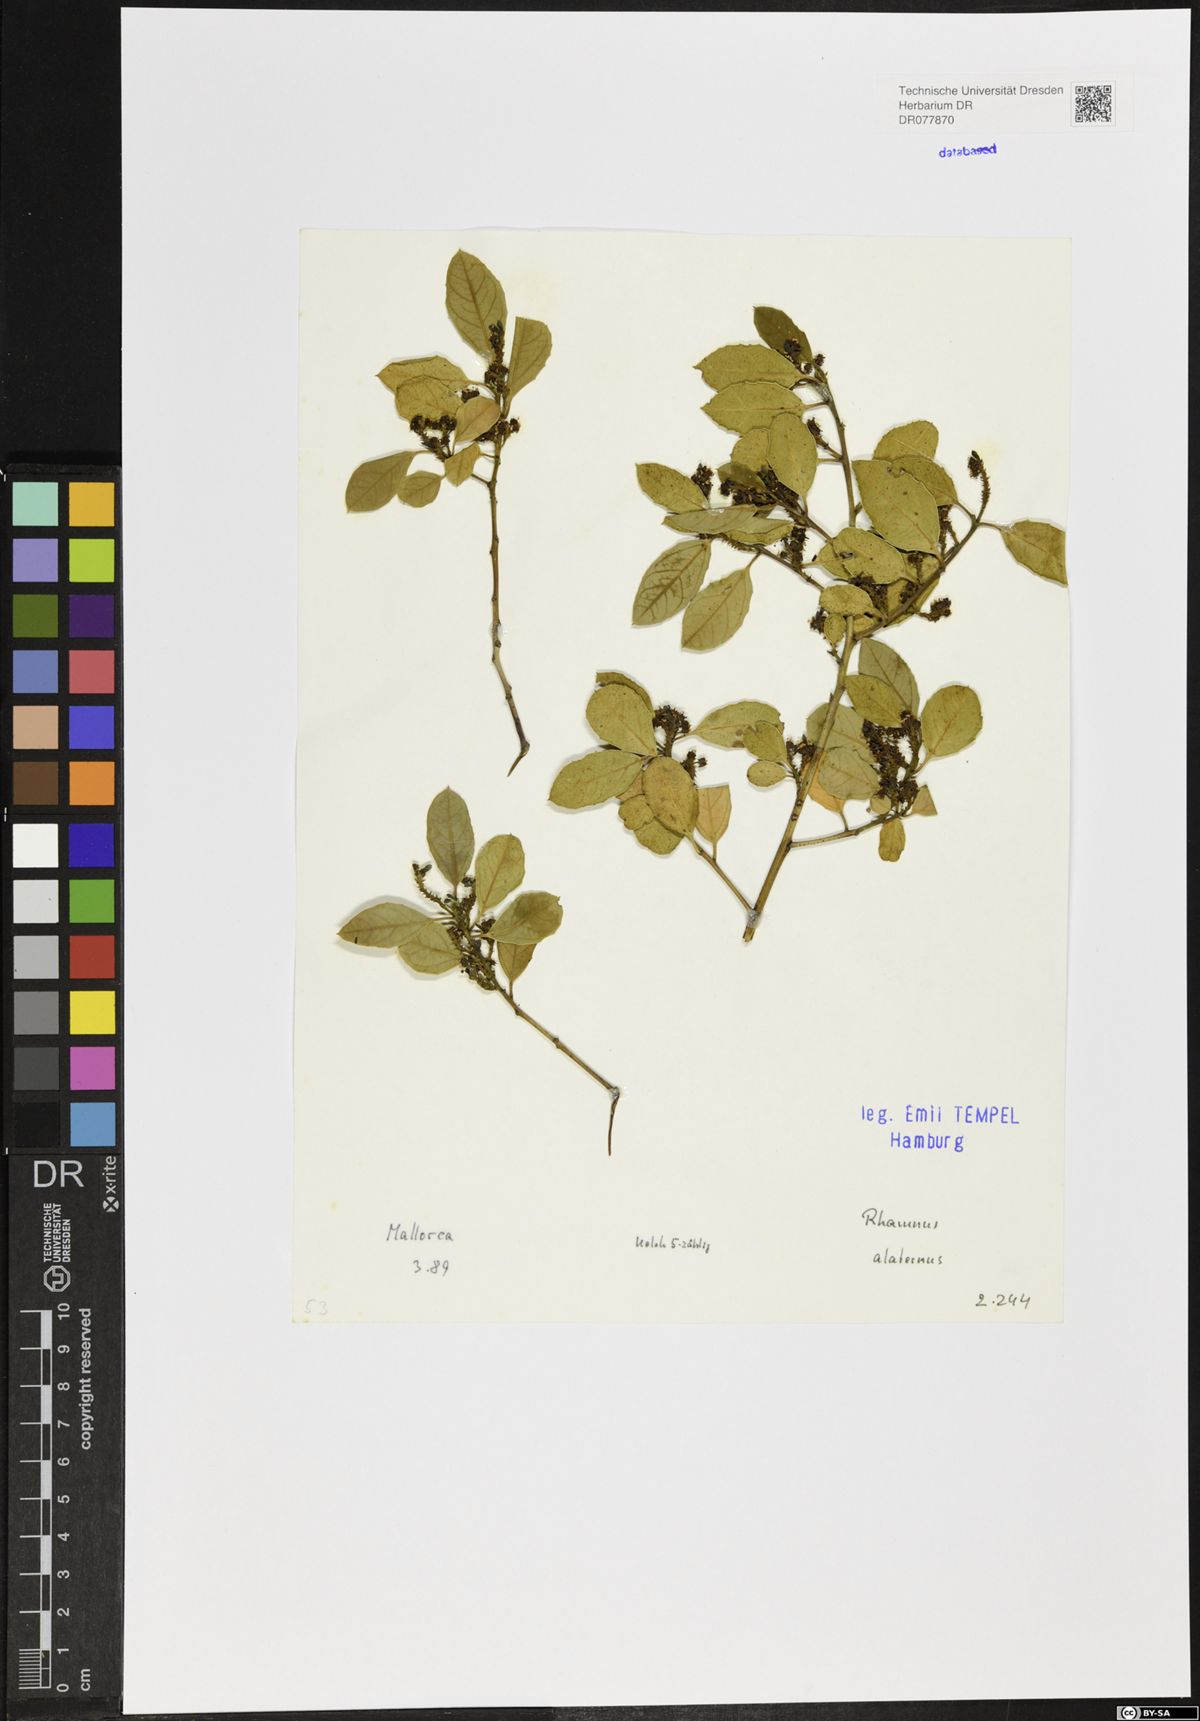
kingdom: Plantae
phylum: Tracheophyta
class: Magnoliopsida
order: Rosales
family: Rhamnaceae
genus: Rhamnus
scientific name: Rhamnus alaternus
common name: Mediterranean buckthorn
